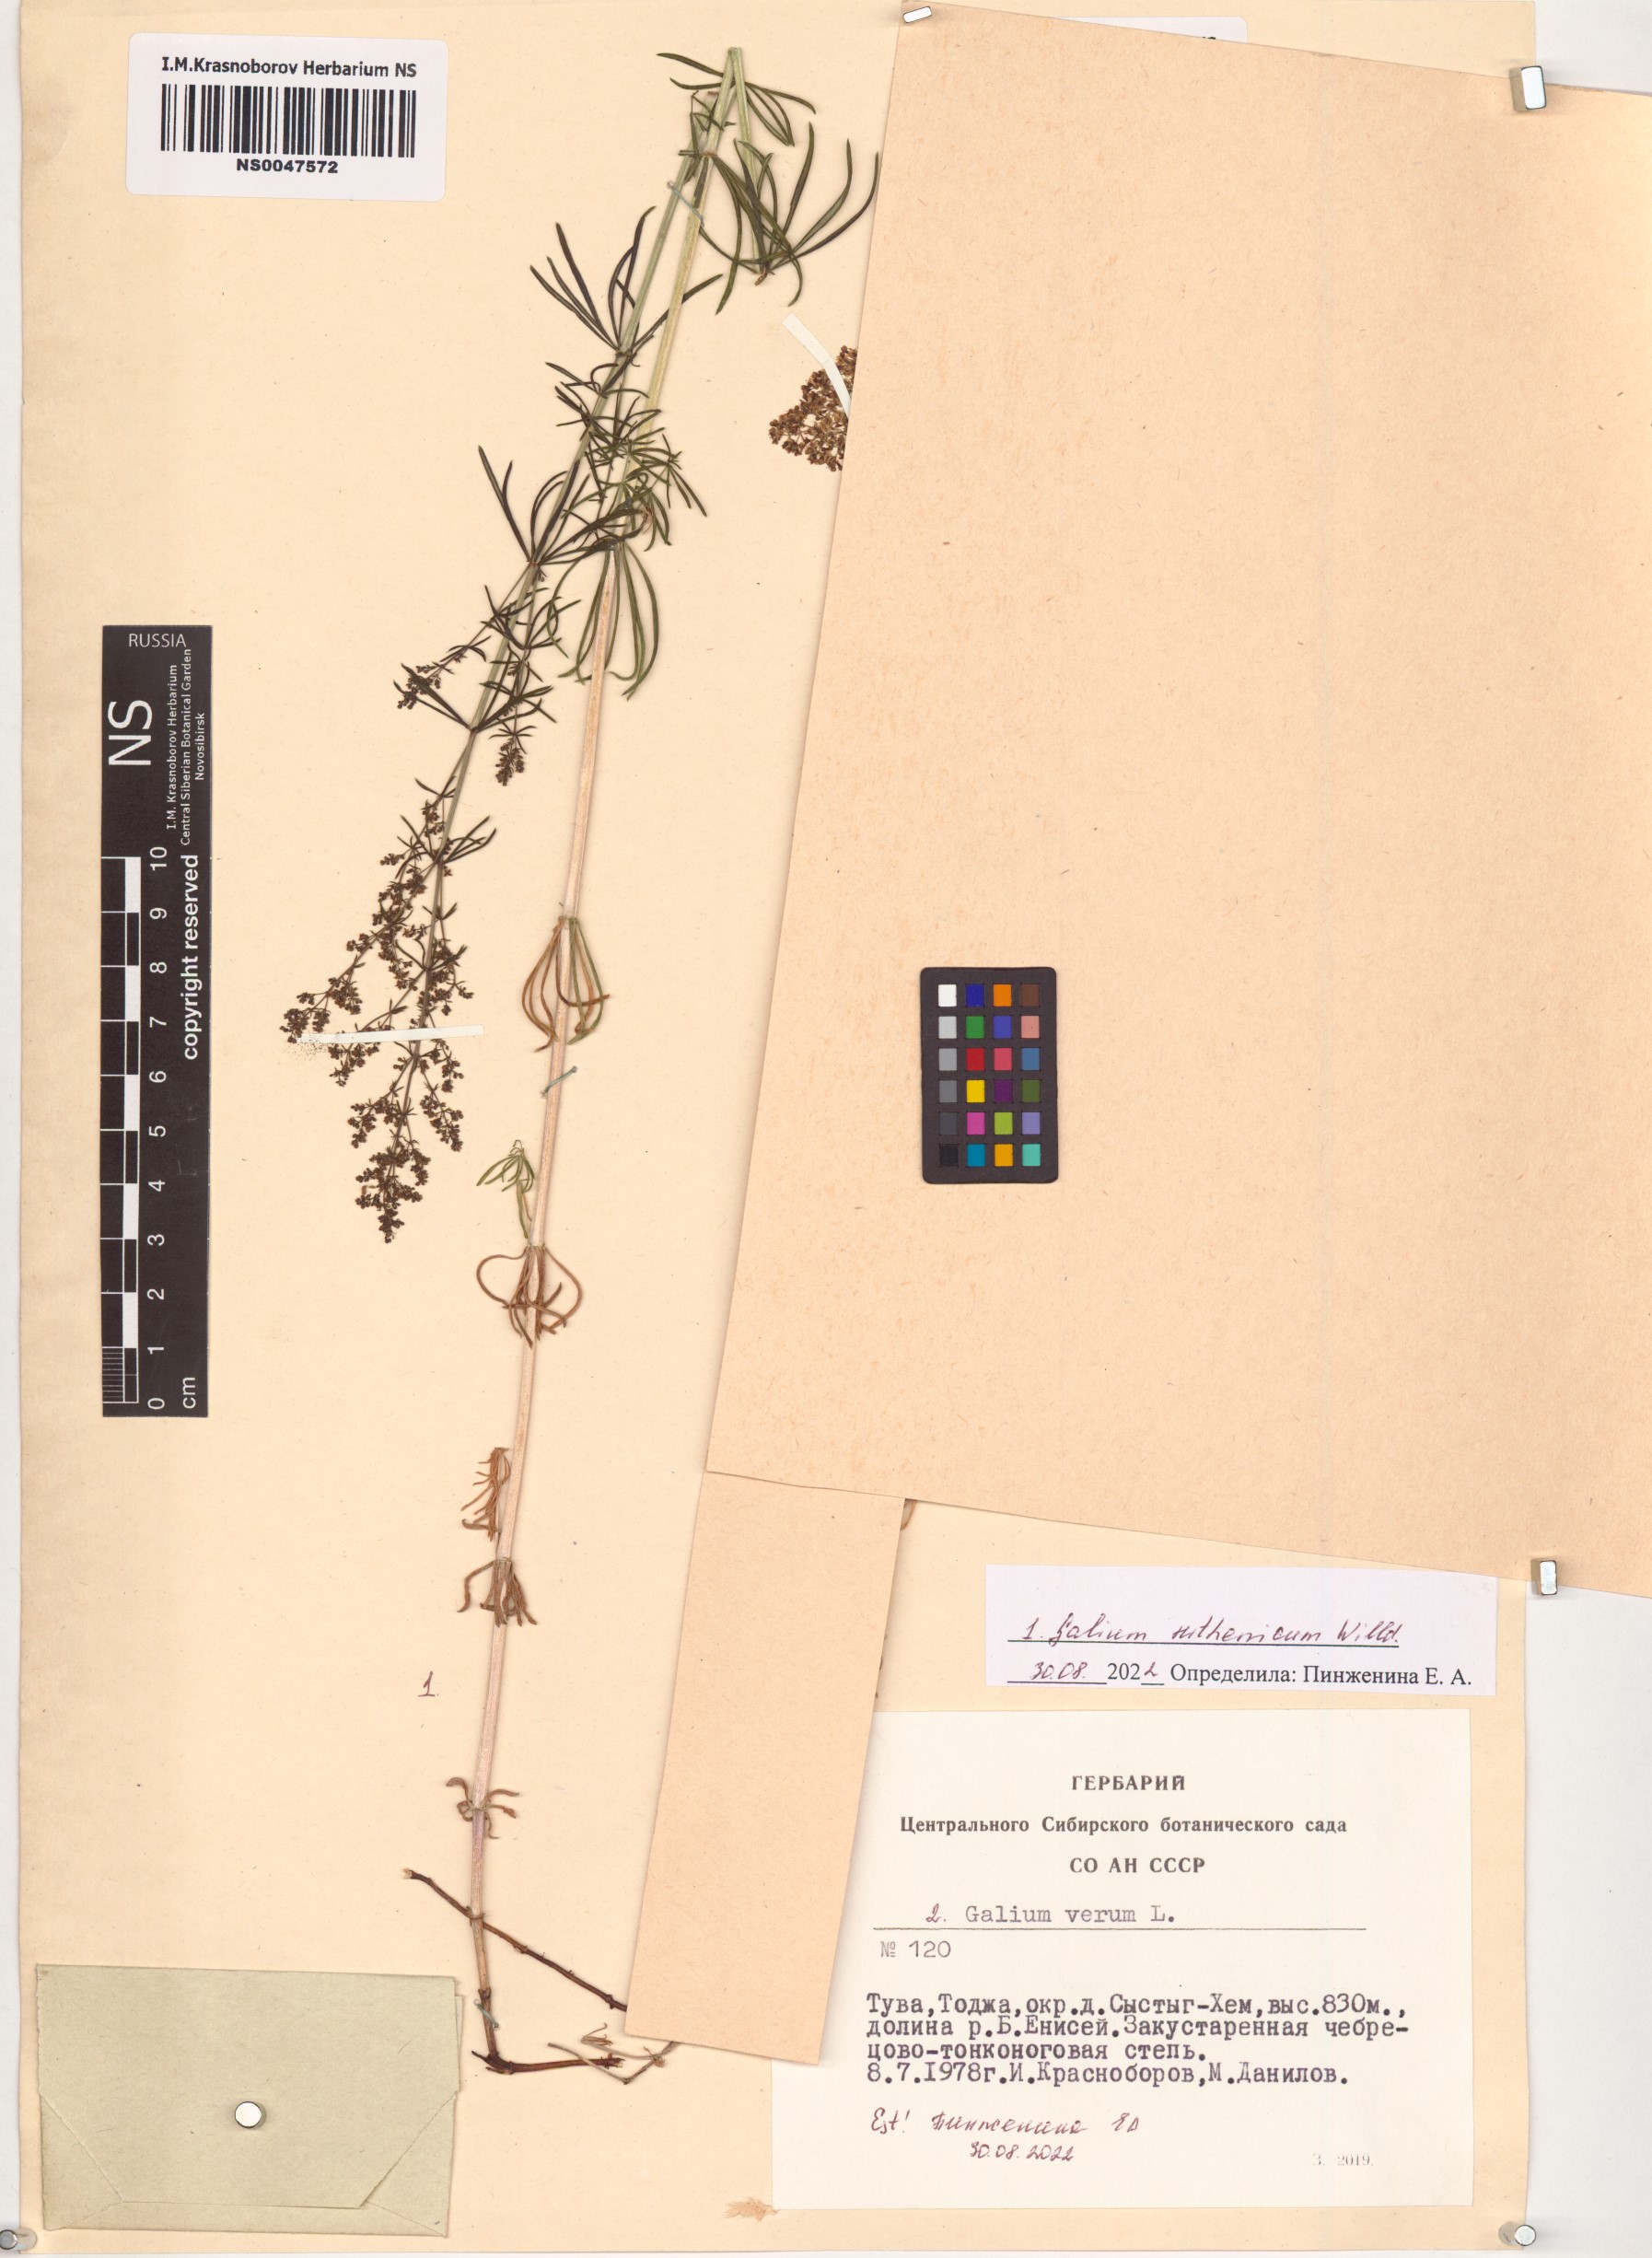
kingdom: Plantae
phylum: Tracheophyta
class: Magnoliopsida
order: Gentianales
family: Rubiaceae
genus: Galium
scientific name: Galium verum
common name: Lady's bedstraw
